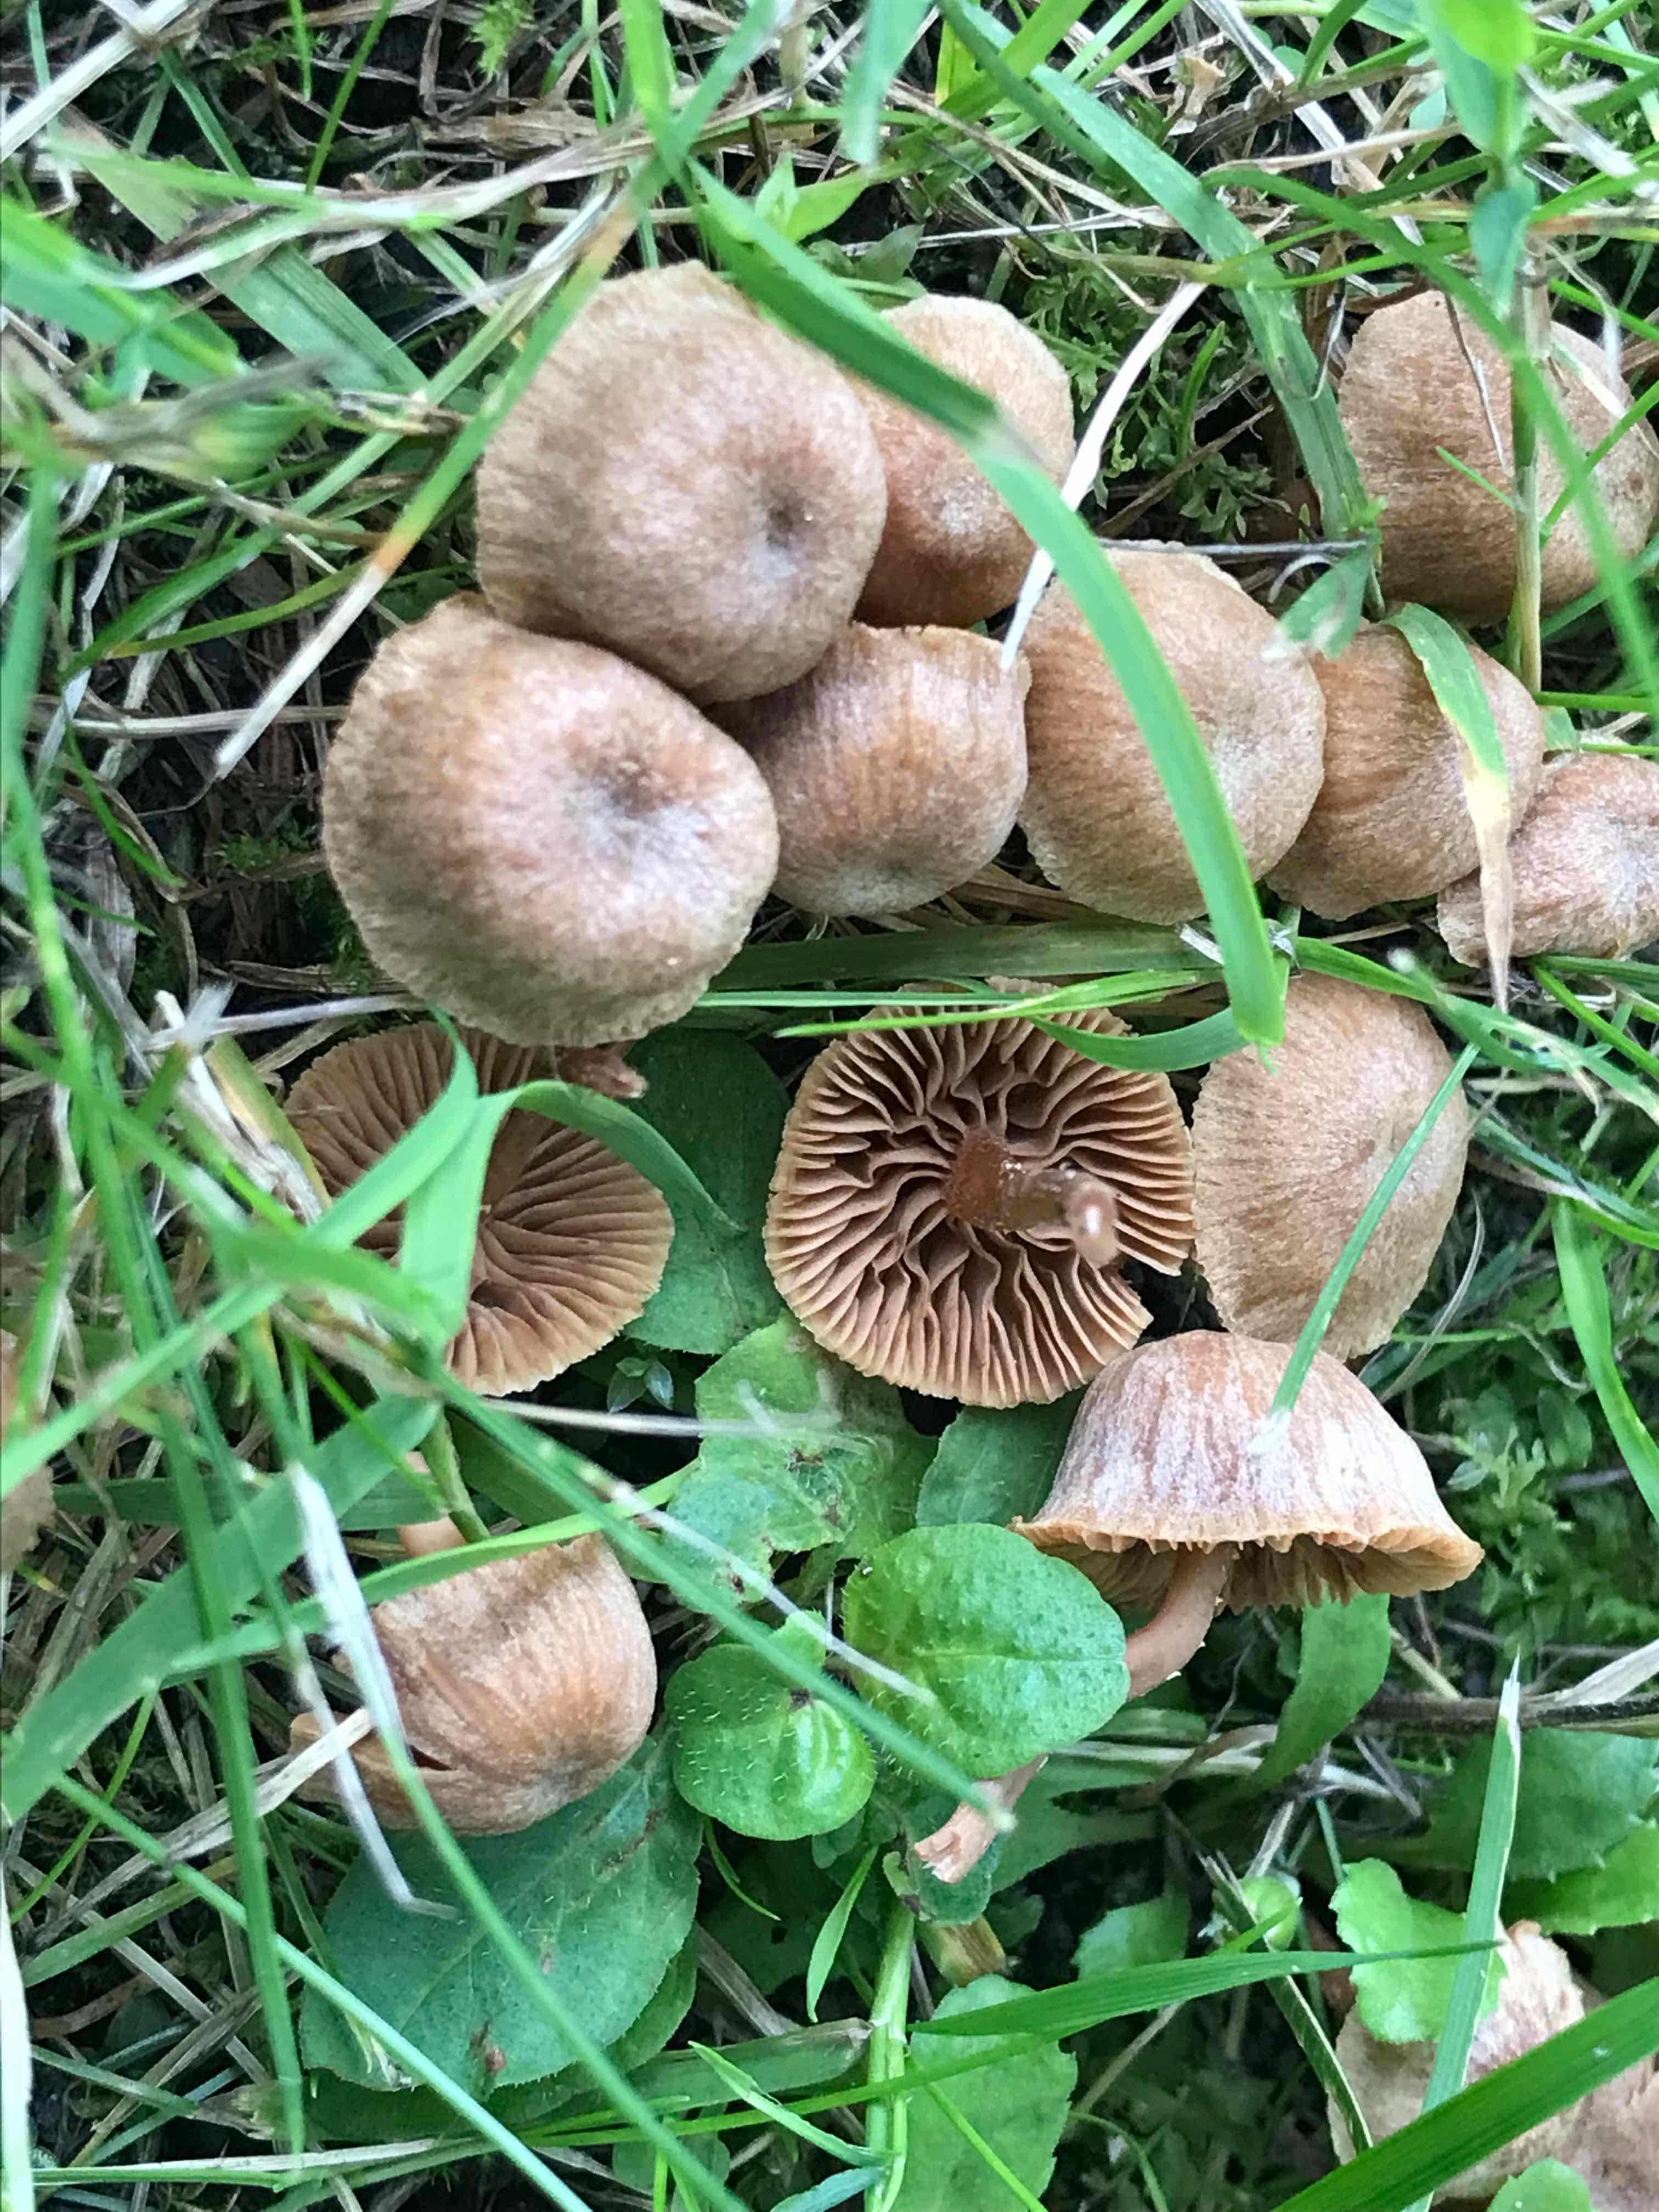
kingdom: Fungi
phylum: Basidiomycota
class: Agaricomycetes
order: Agaricales
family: Tubariaceae
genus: Tubaria
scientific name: Tubaria conspersa
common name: bleg fnughat
